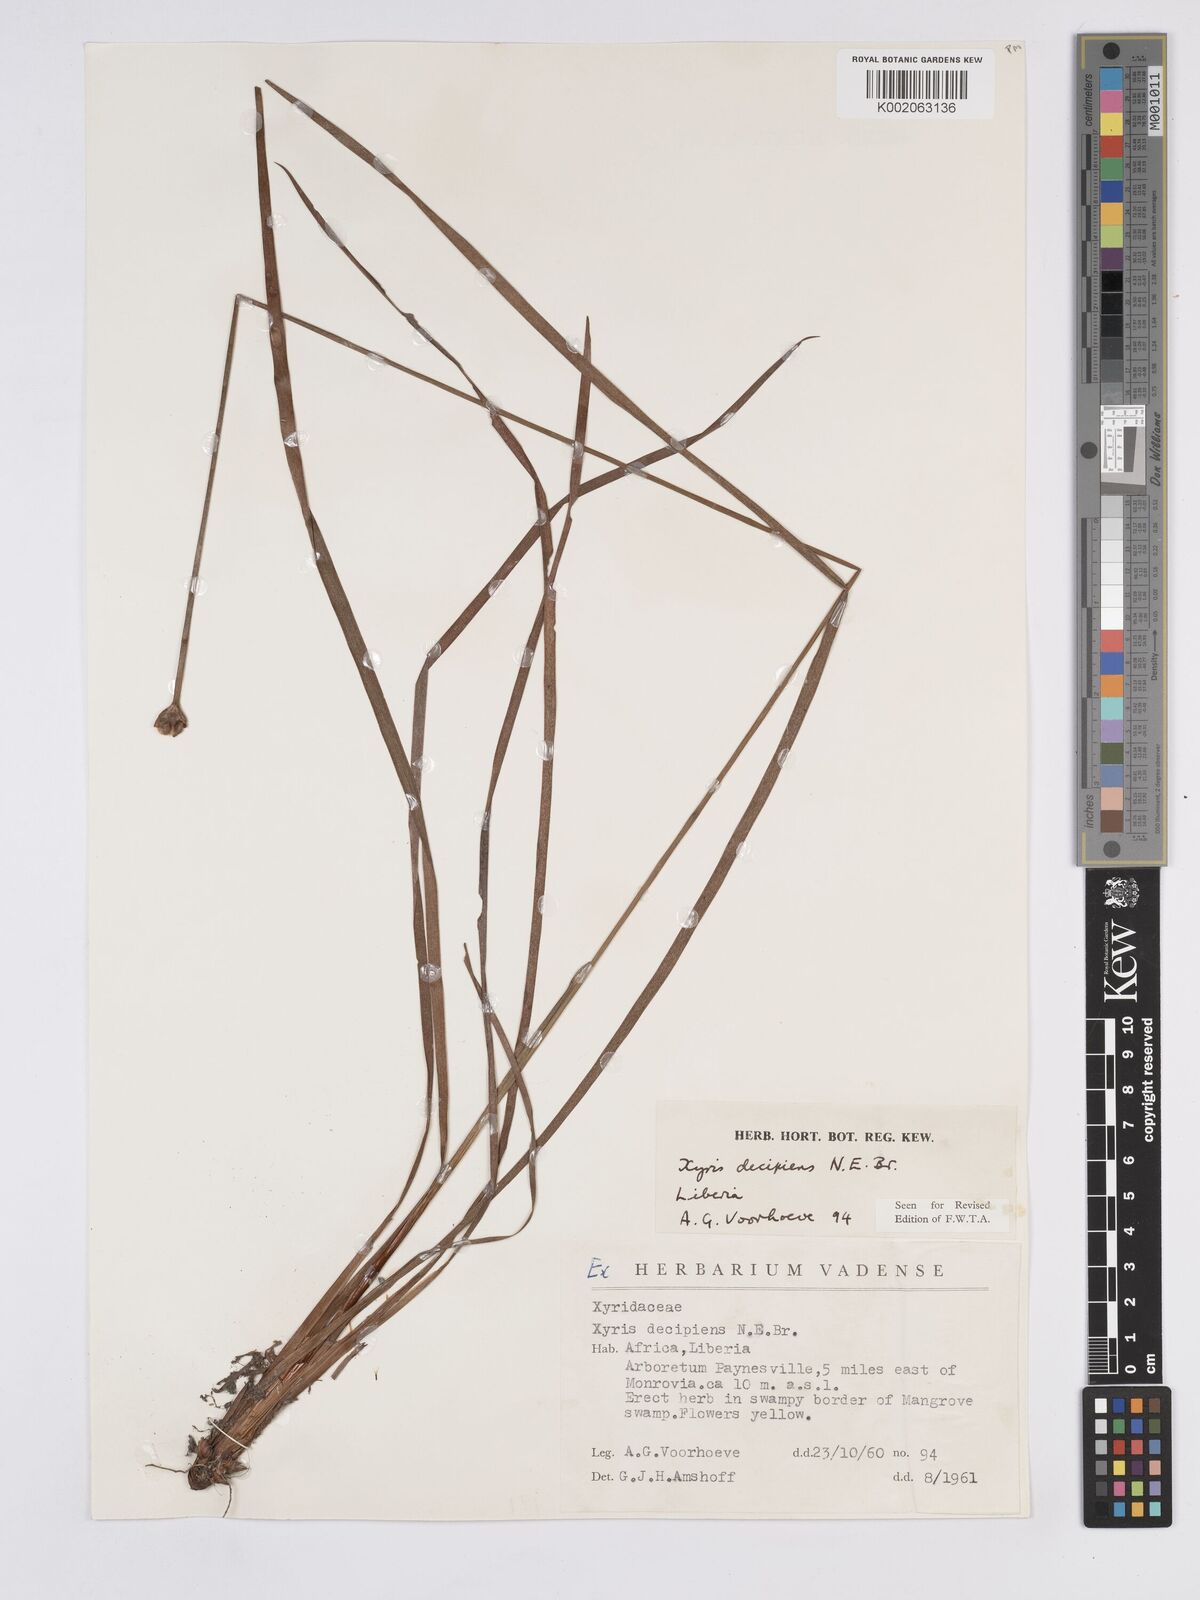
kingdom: Plantae
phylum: Tracheophyta
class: Liliopsida
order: Poales
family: Xyridaceae
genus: Xyris
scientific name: Xyris decipiens
